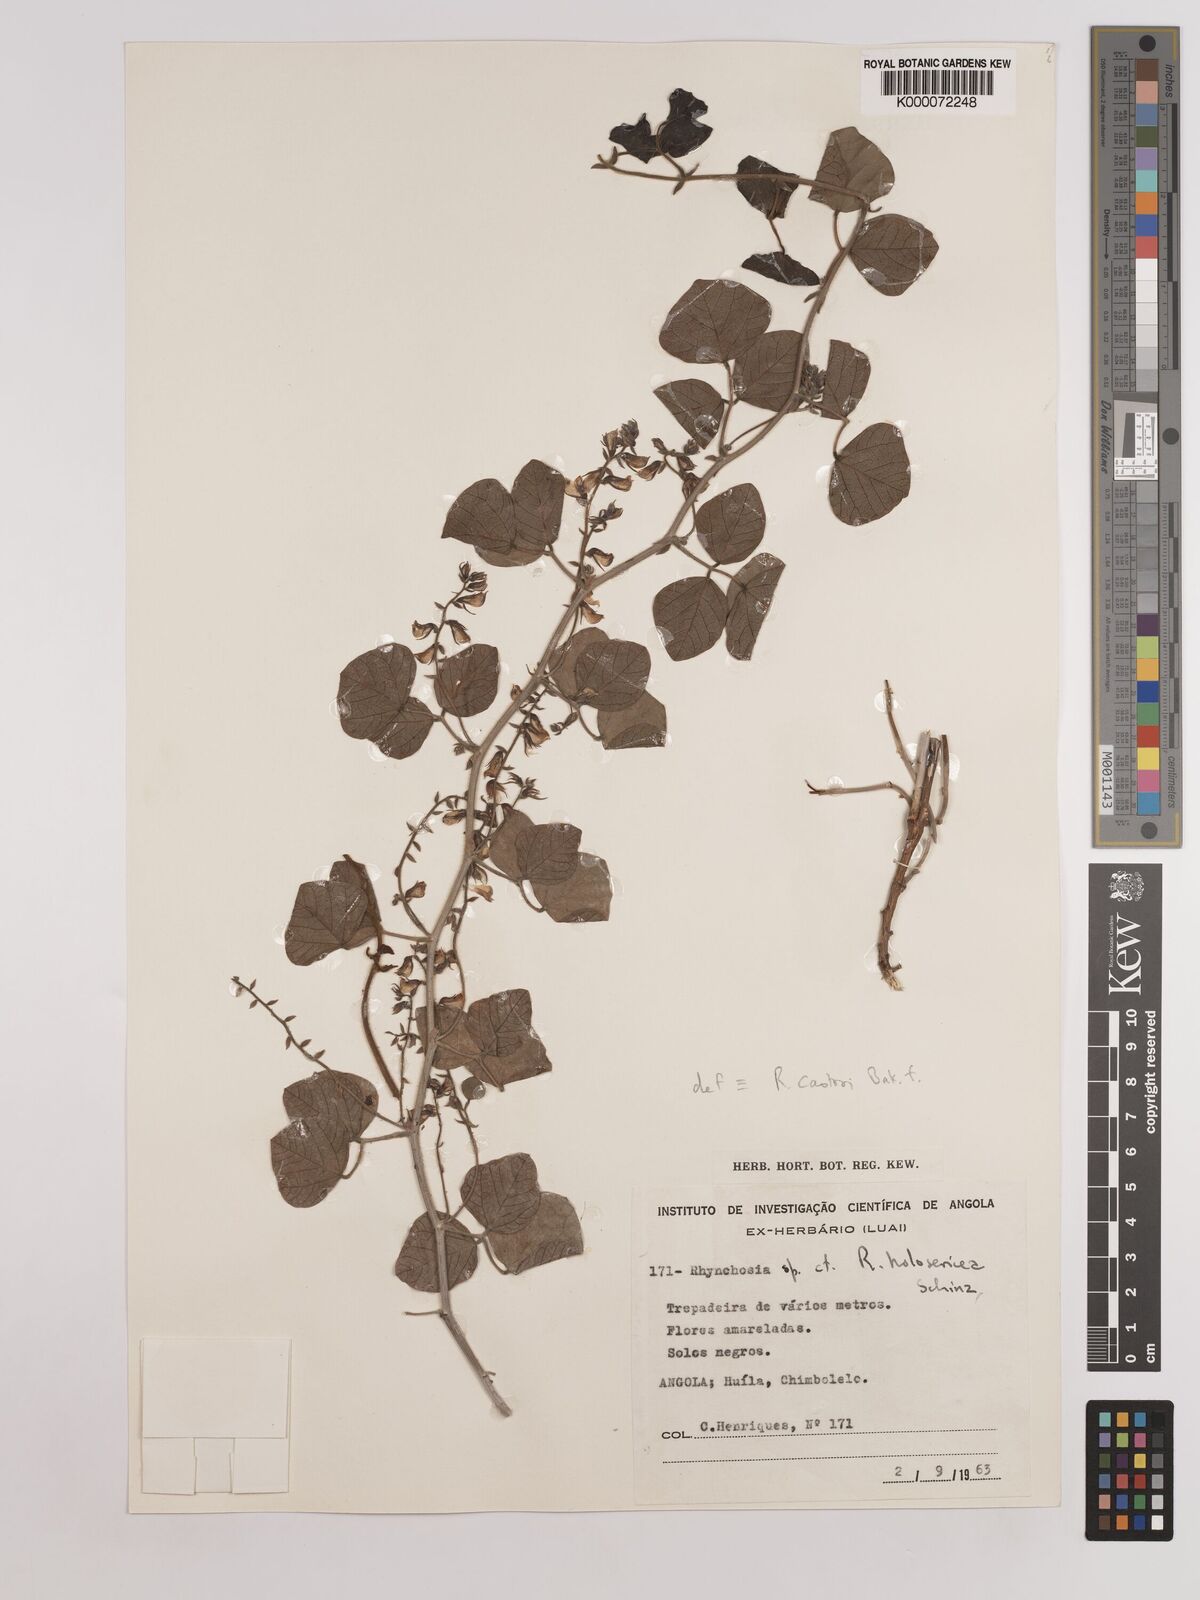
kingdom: Plantae
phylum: Tracheophyta
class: Magnoliopsida
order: Fabales
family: Fabaceae
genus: Rhynchosia
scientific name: Rhynchosia castroi
